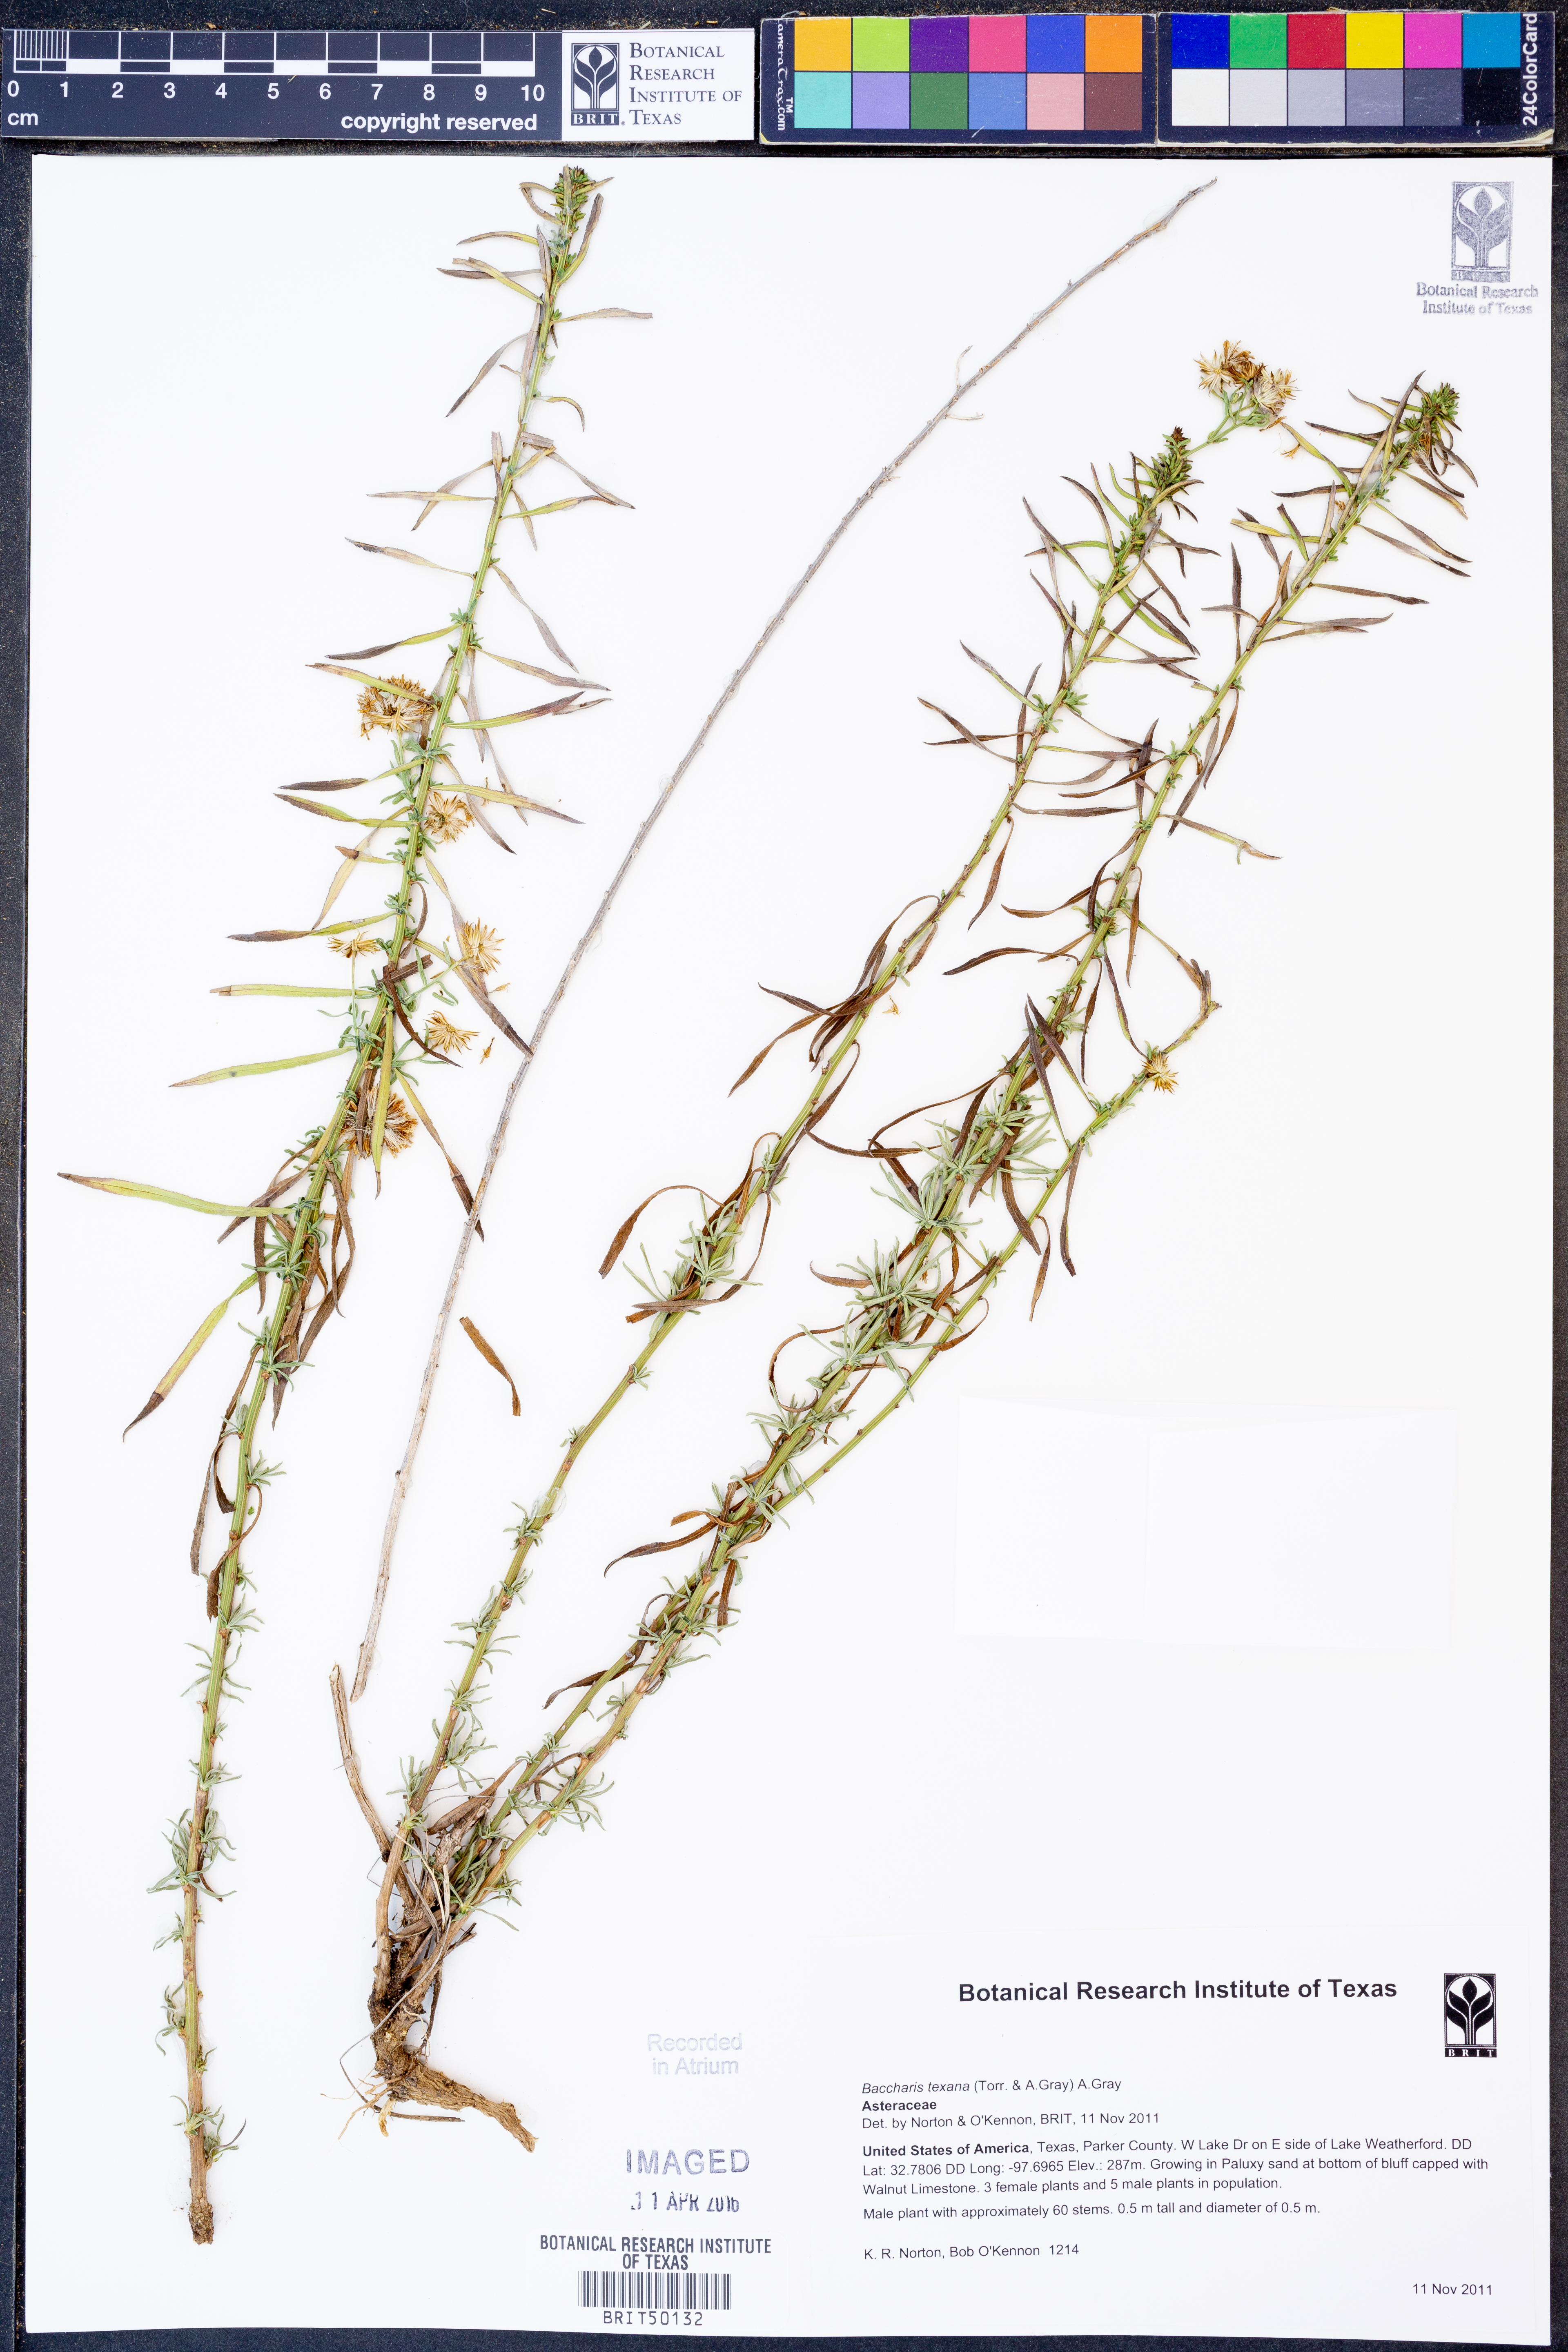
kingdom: Plantae
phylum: Tracheophyta
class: Magnoliopsida
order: Asterales
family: Asteraceae
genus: Baccharis
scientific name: Baccharis texana
